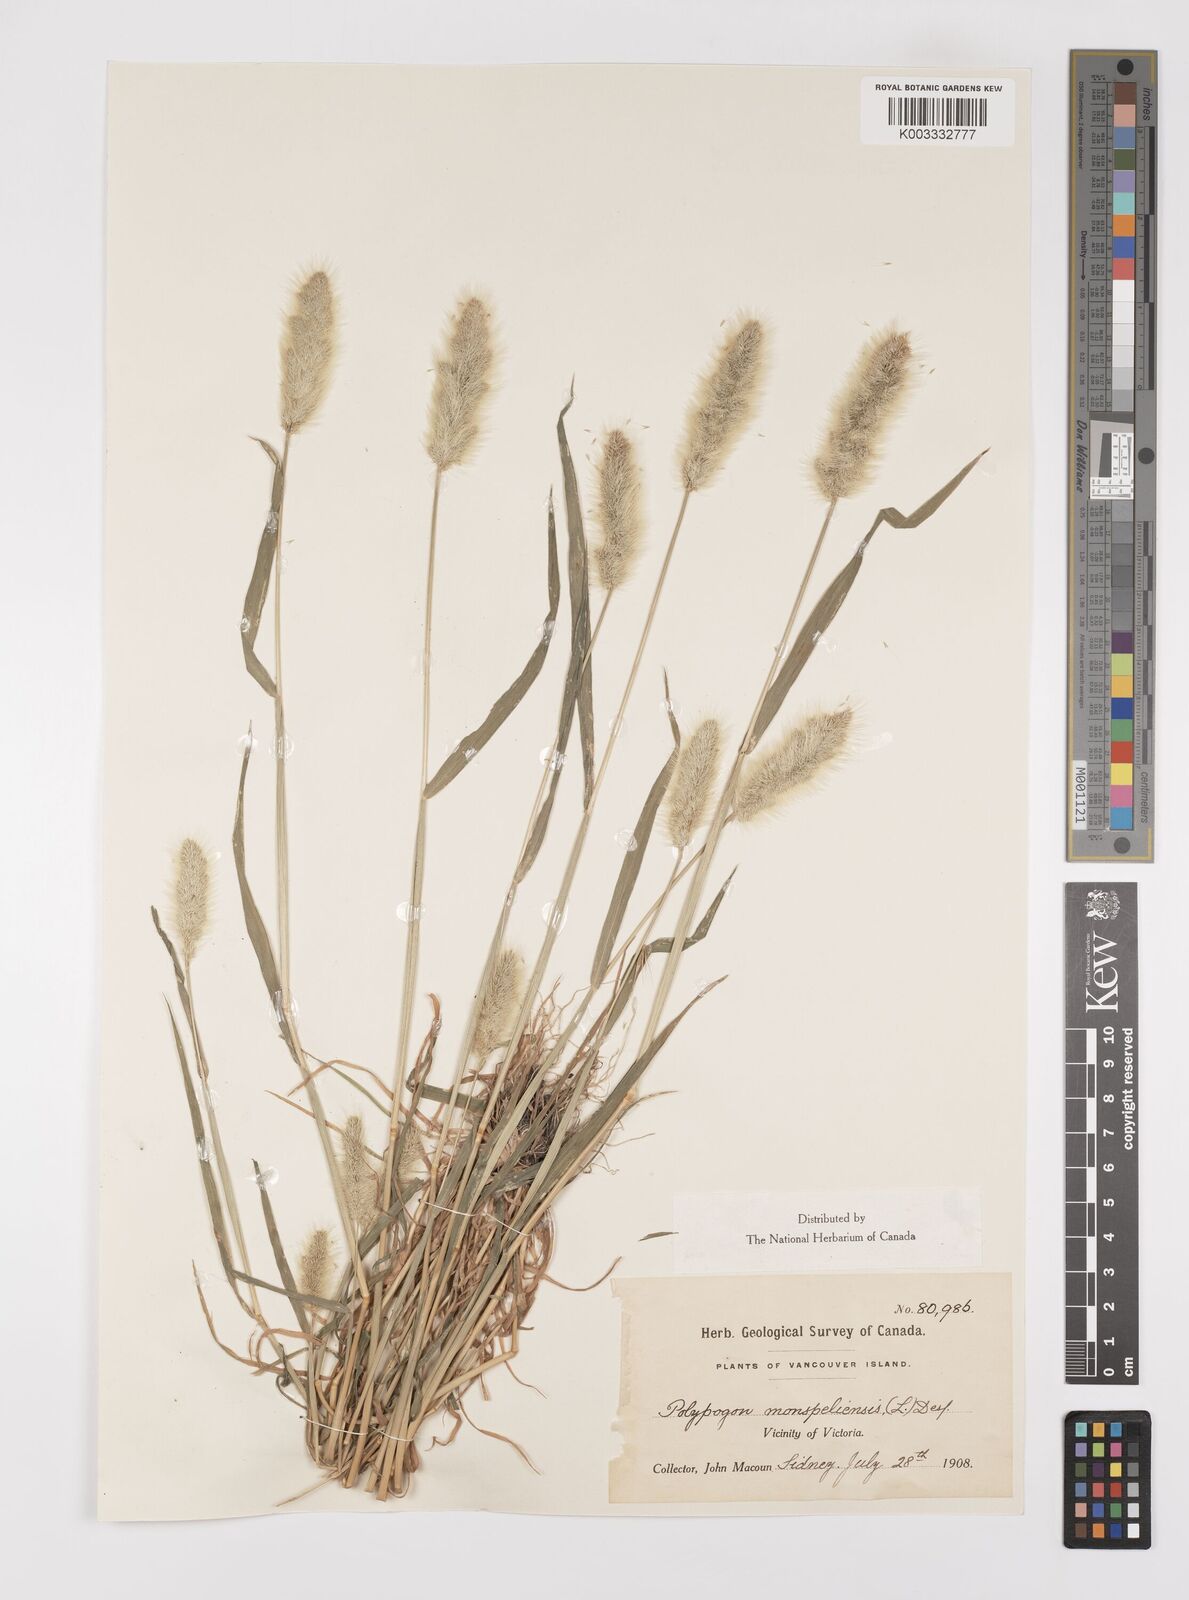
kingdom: Plantae
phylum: Tracheophyta
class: Liliopsida
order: Poales
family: Poaceae
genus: Polypogon
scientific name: Polypogon monspeliensis
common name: Annual rabbitsfoot grass
